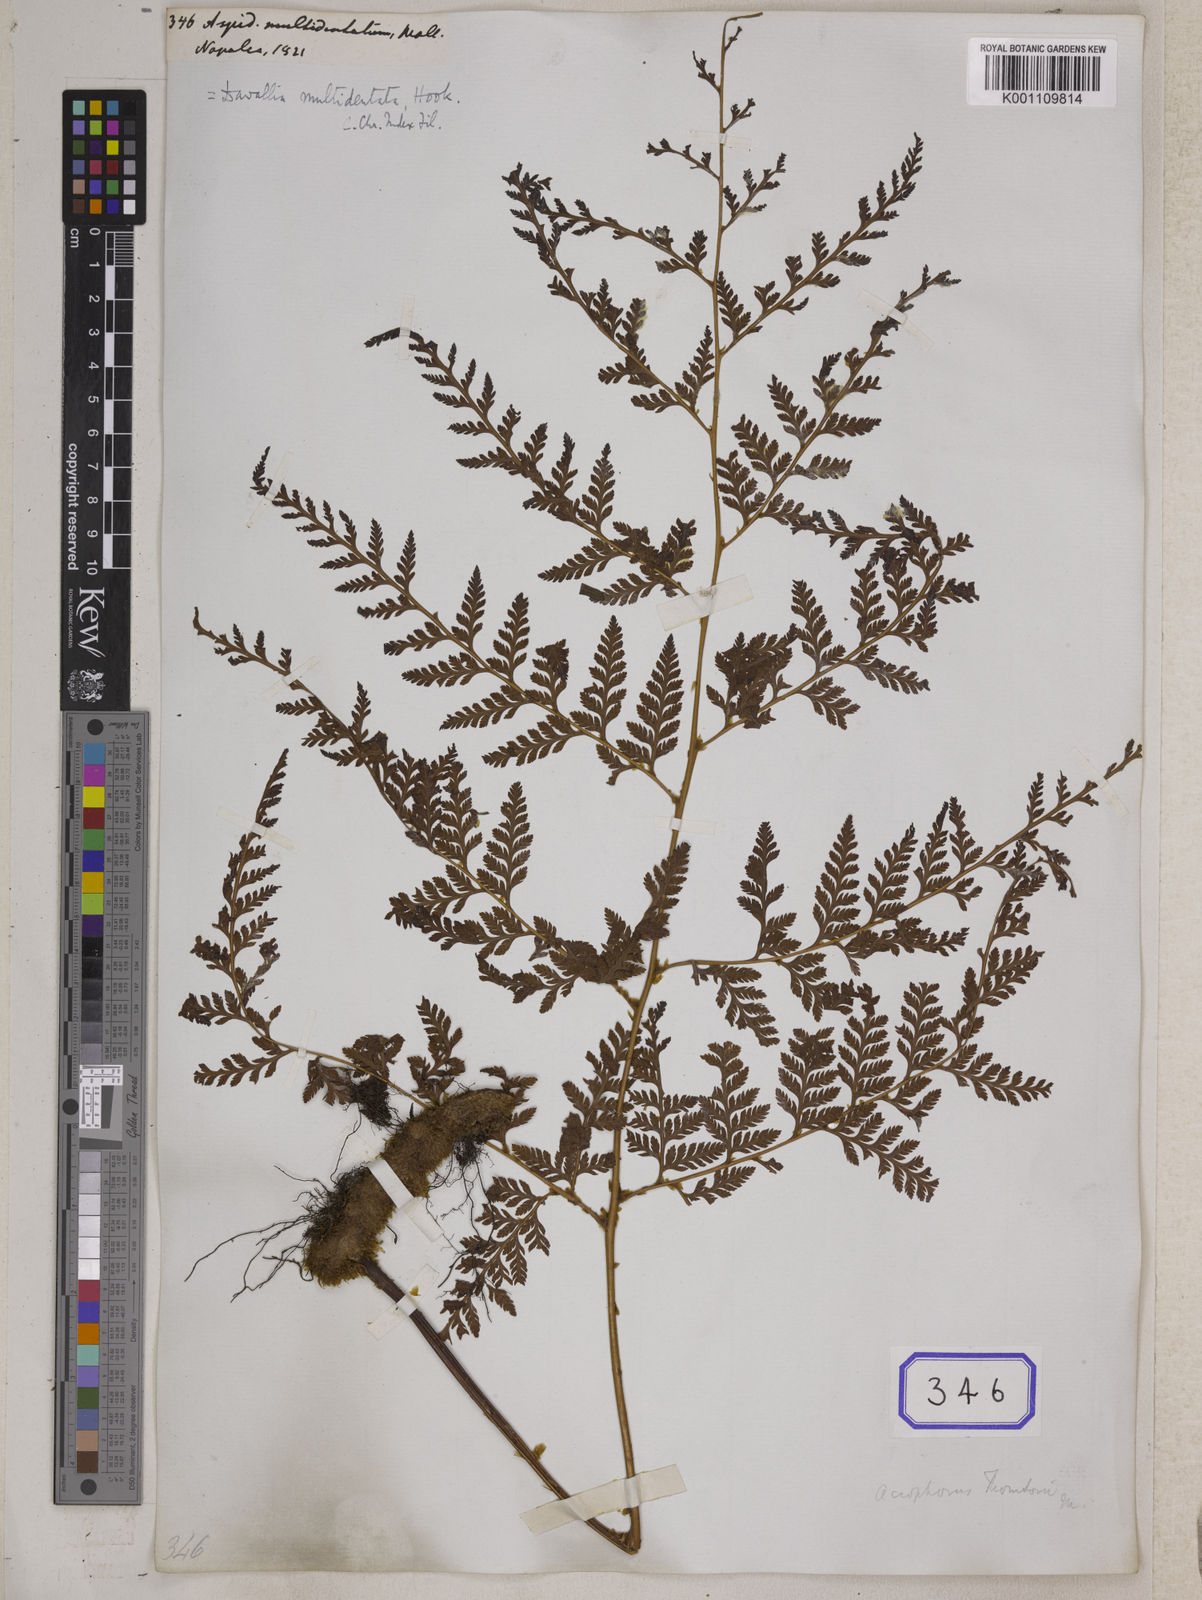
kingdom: Plantae
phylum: Tracheophyta
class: Polypodiopsida
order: Polypodiales
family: Davalliaceae
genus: Davallodes
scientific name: Davallodes multidentata
